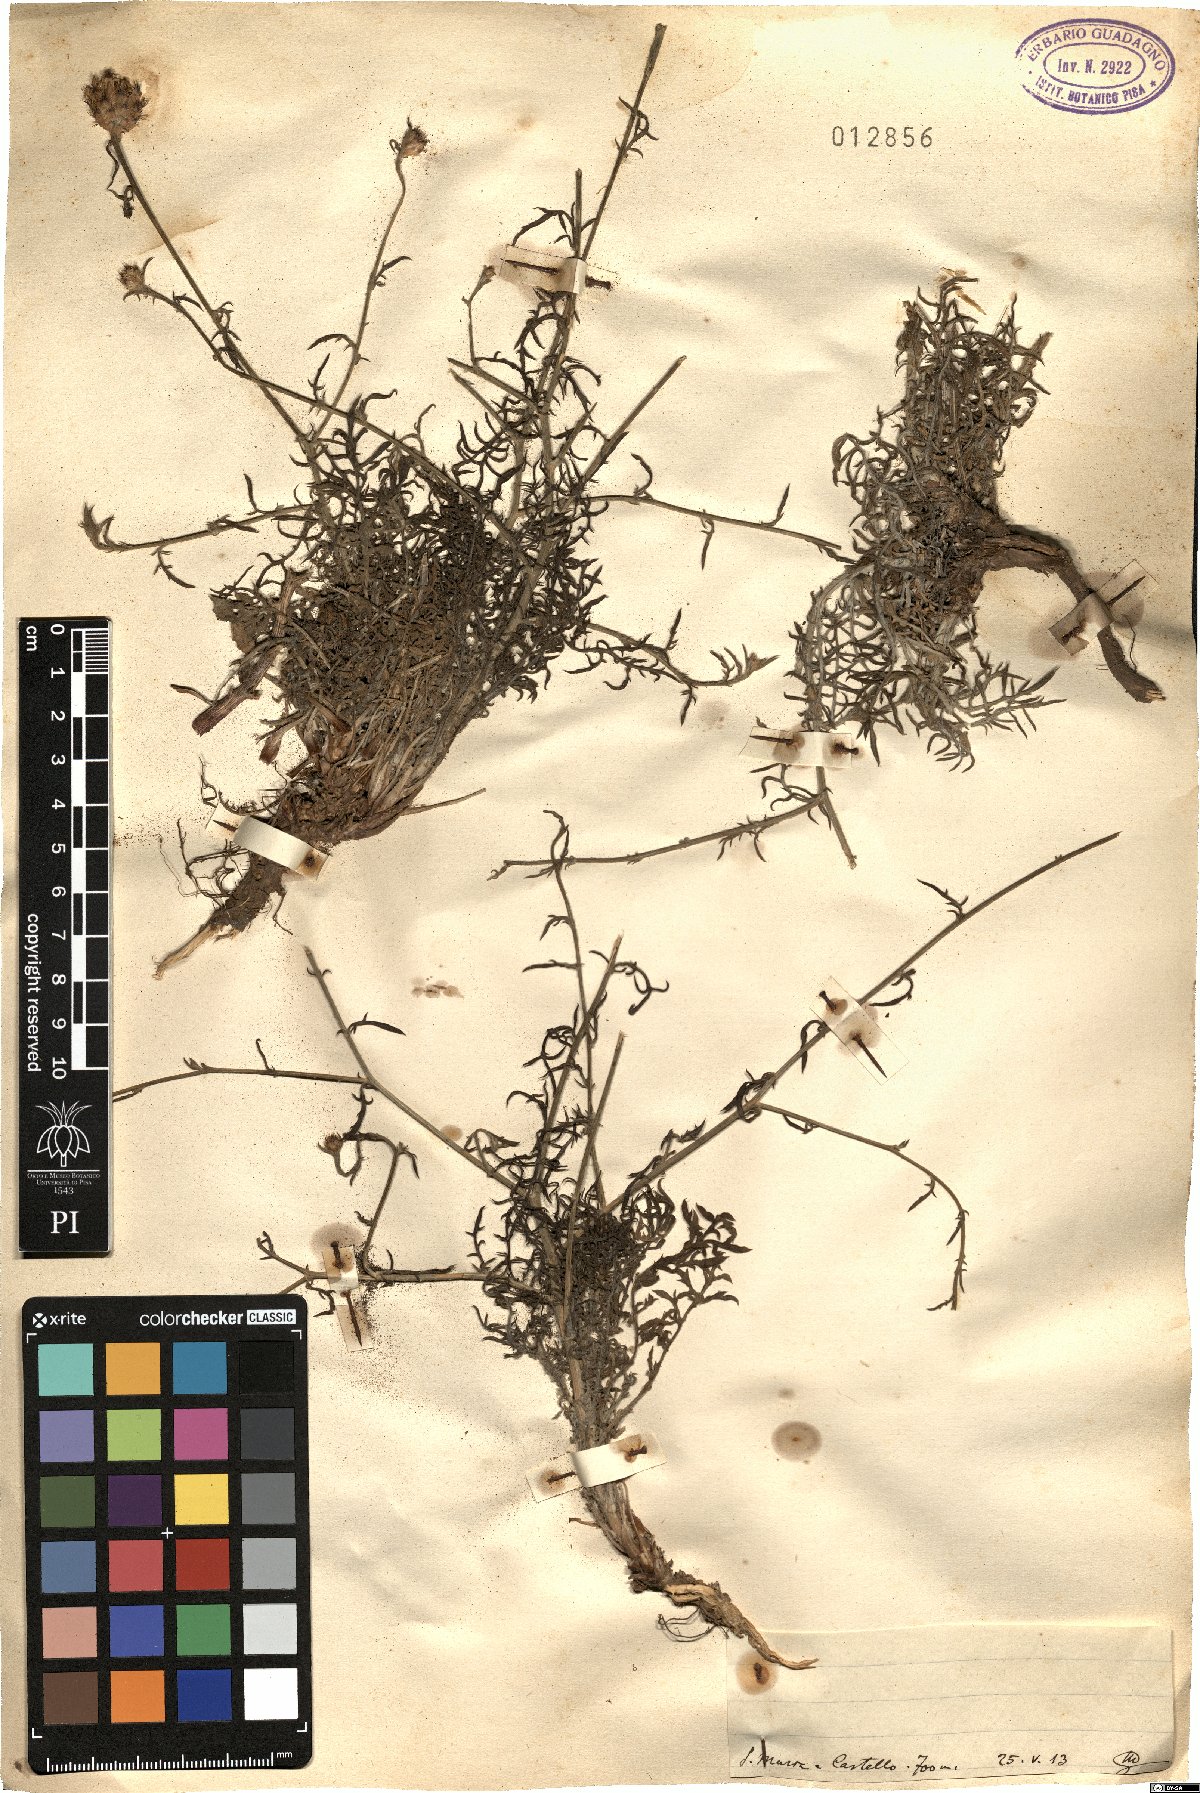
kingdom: Plantae
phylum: Tracheophyta
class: Magnoliopsida
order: Asterales
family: Asteraceae
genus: Centaurea
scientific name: Centaurea
